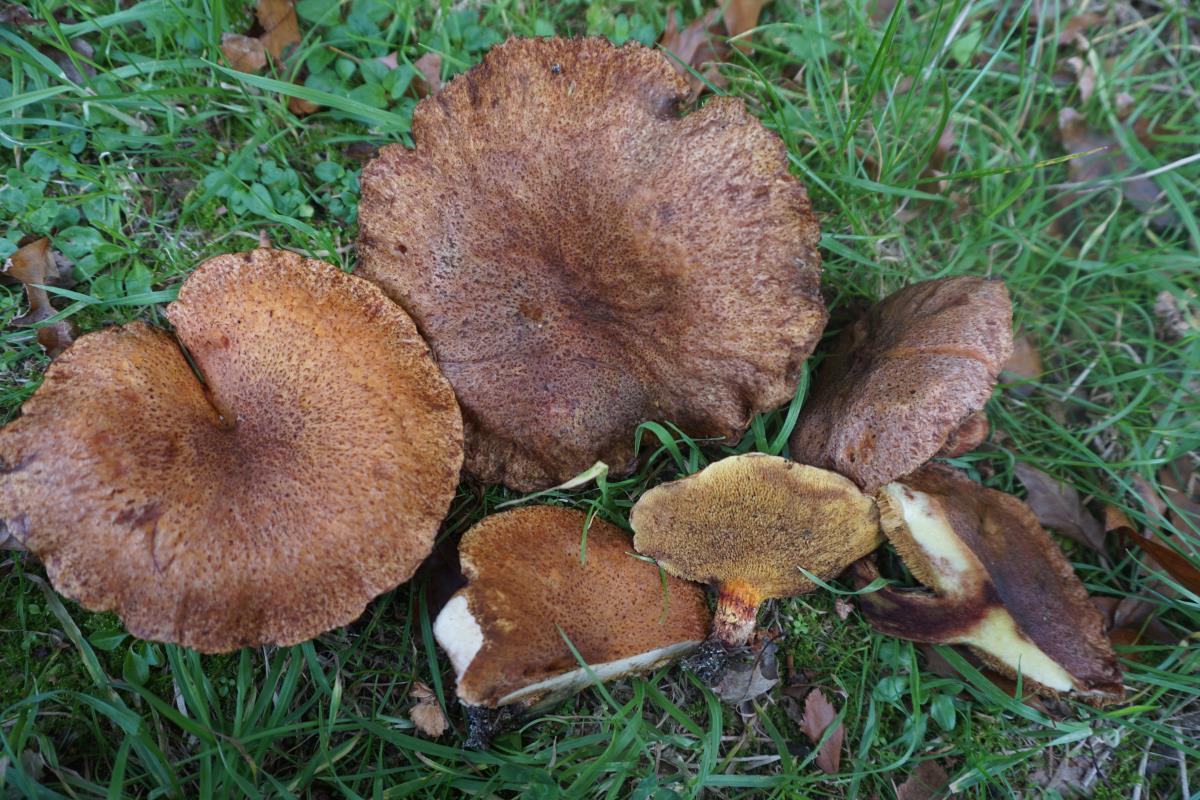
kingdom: Fungi
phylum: Basidiomycota
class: Agaricomycetes
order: Boletales
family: Suillaceae
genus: Suillus
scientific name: Suillus lakei
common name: Western painted suillus
